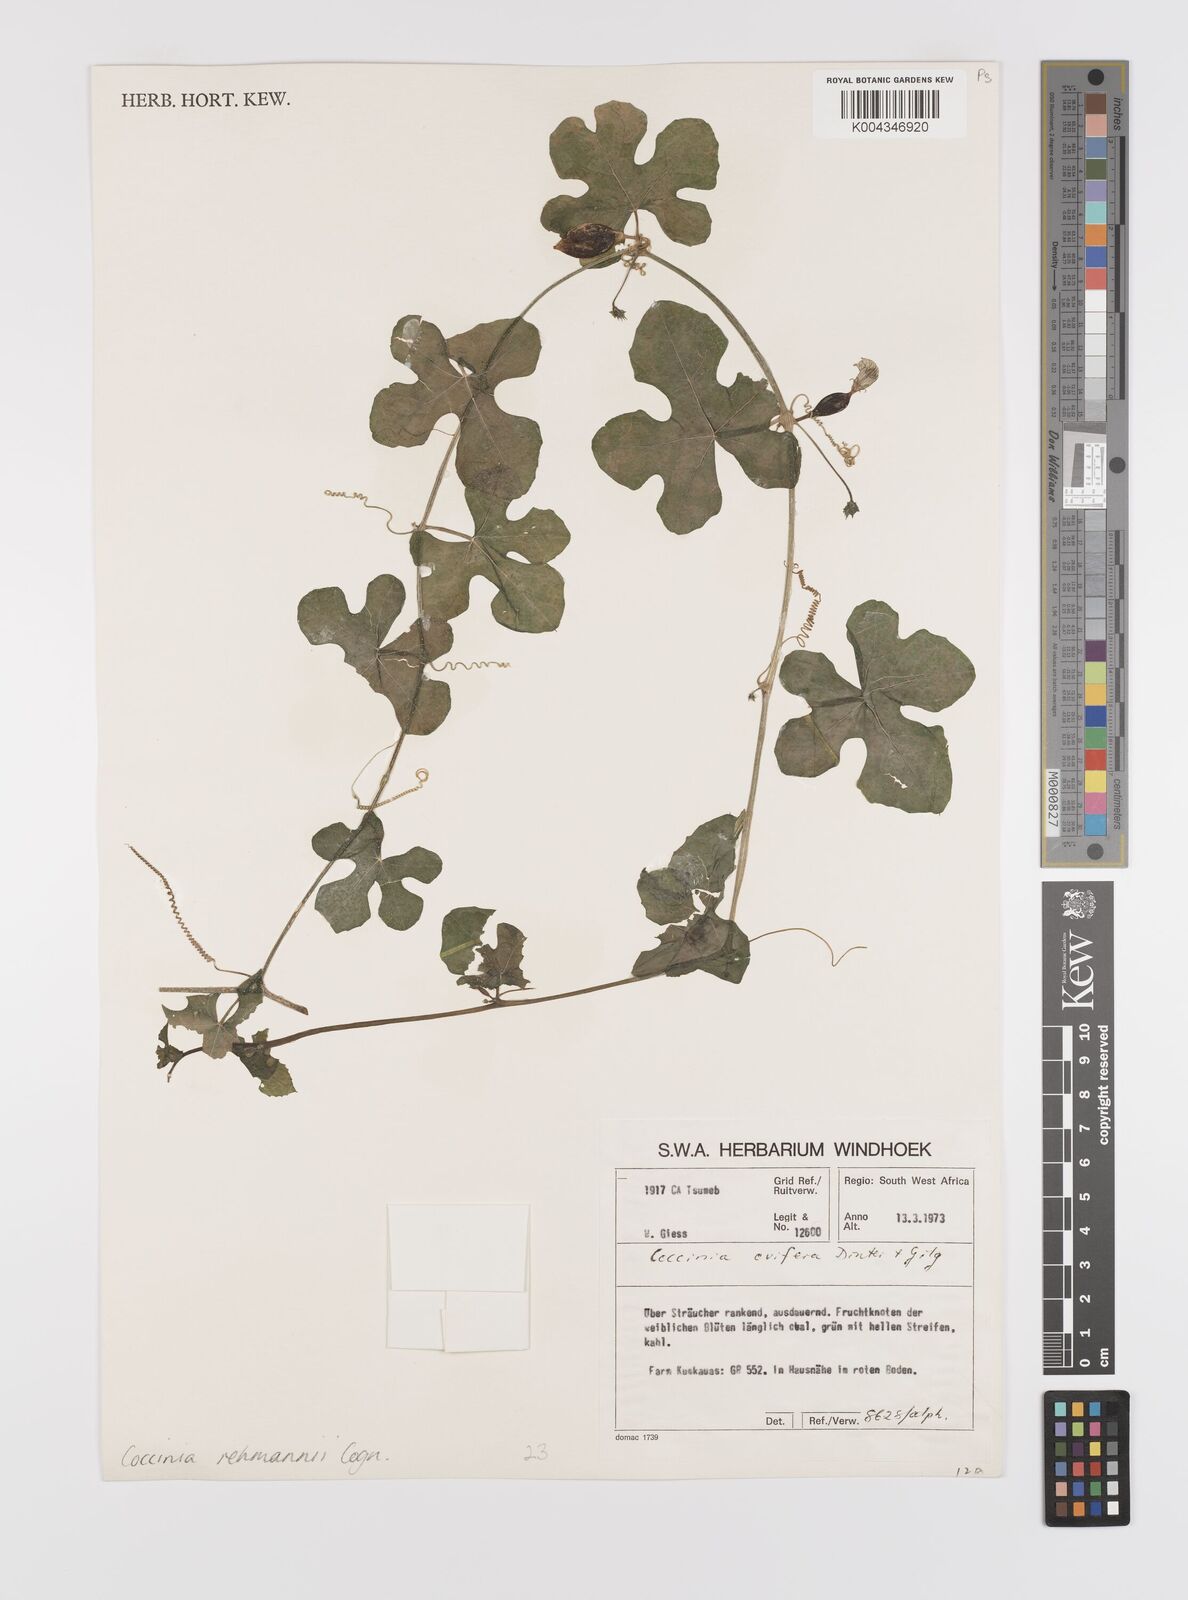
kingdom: Plantae
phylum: Tracheophyta
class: Magnoliopsida
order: Cucurbitales
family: Cucurbitaceae
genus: Coccinia
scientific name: Coccinia rehmannii
